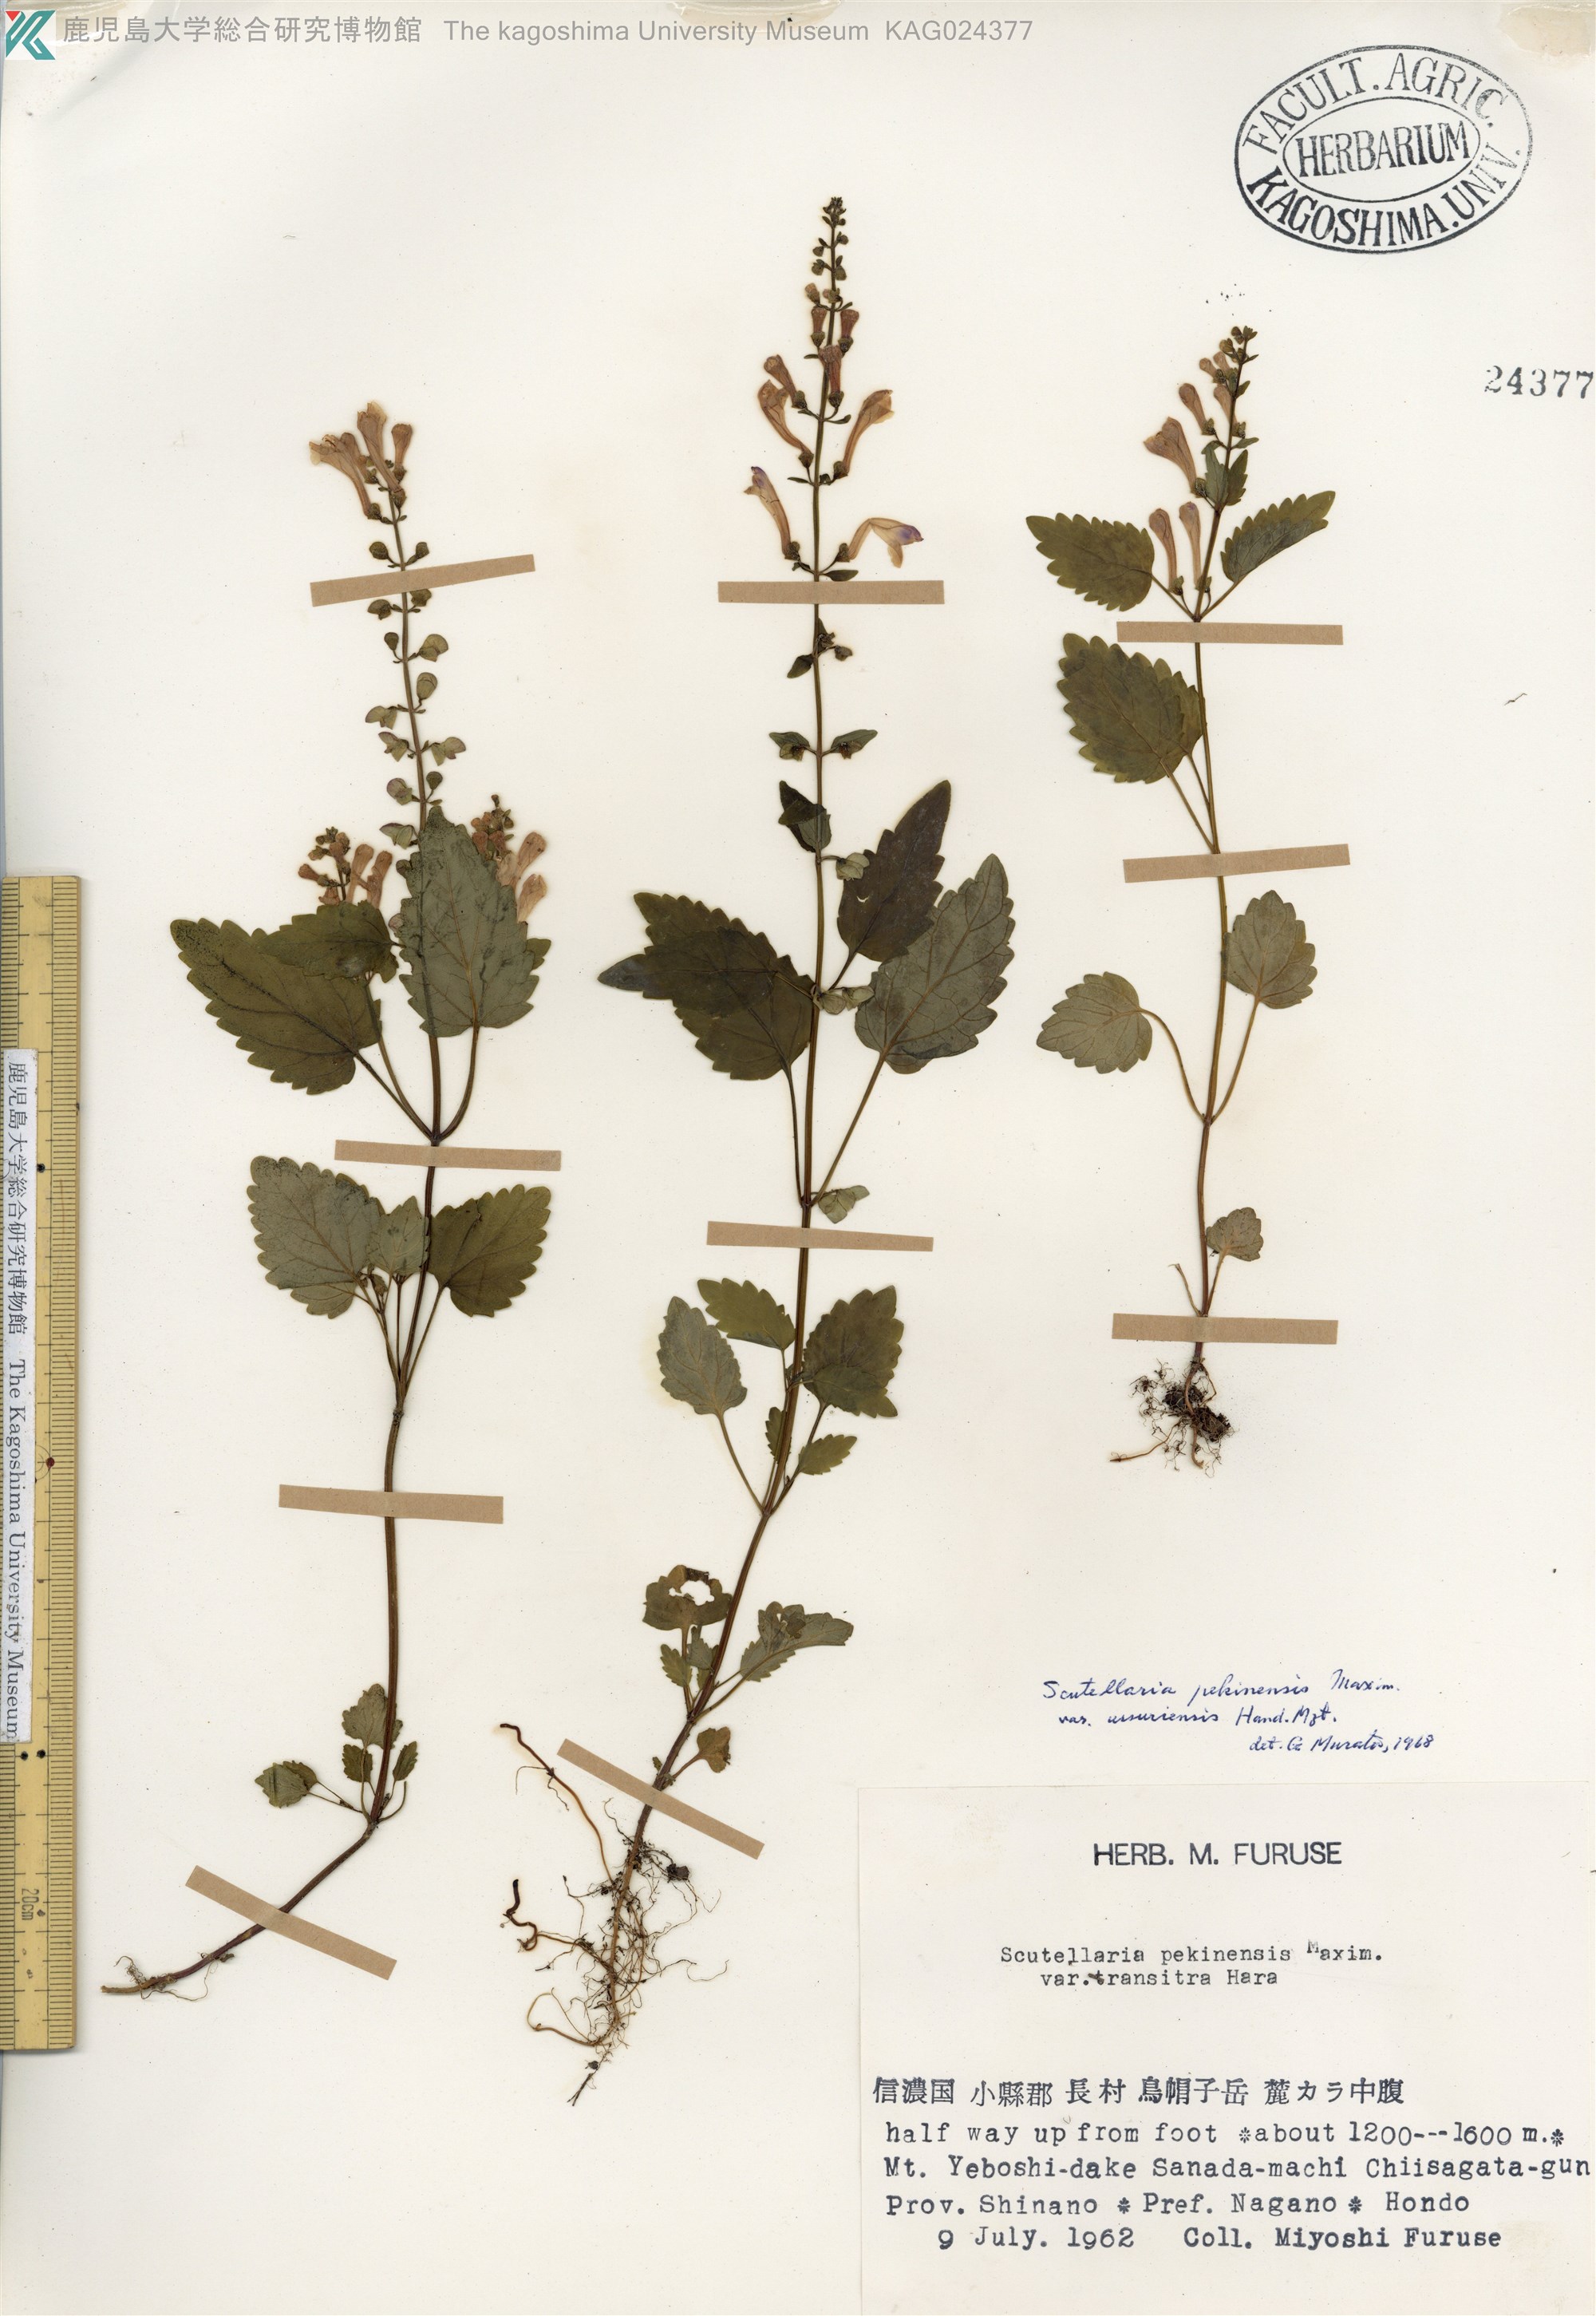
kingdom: Plantae
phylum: Tracheophyta
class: Magnoliopsida
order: Lamiales
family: Lamiaceae
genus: Scutellaria
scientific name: Scutellaria pekinensis
